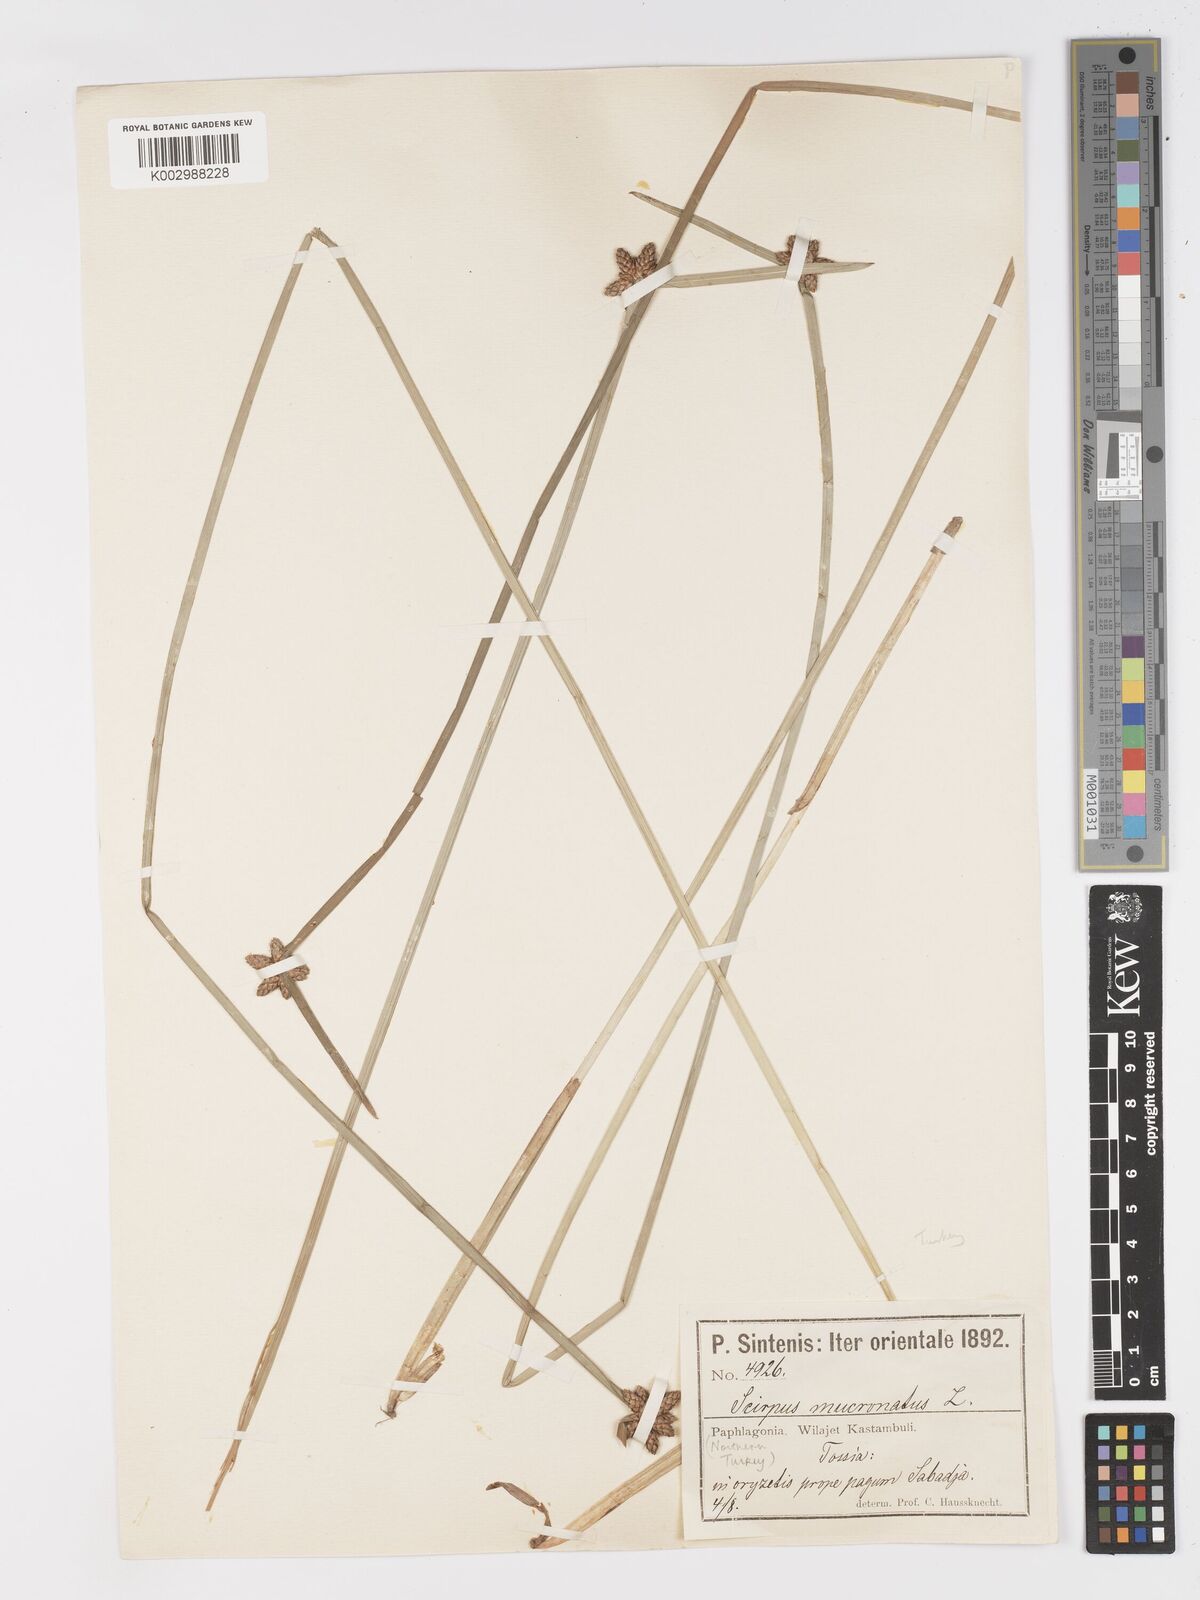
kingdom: Plantae
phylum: Tracheophyta
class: Liliopsida
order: Poales
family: Cyperaceae
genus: Schoenoplectiella
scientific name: Schoenoplectiella mucronata
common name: Bog bulrush
